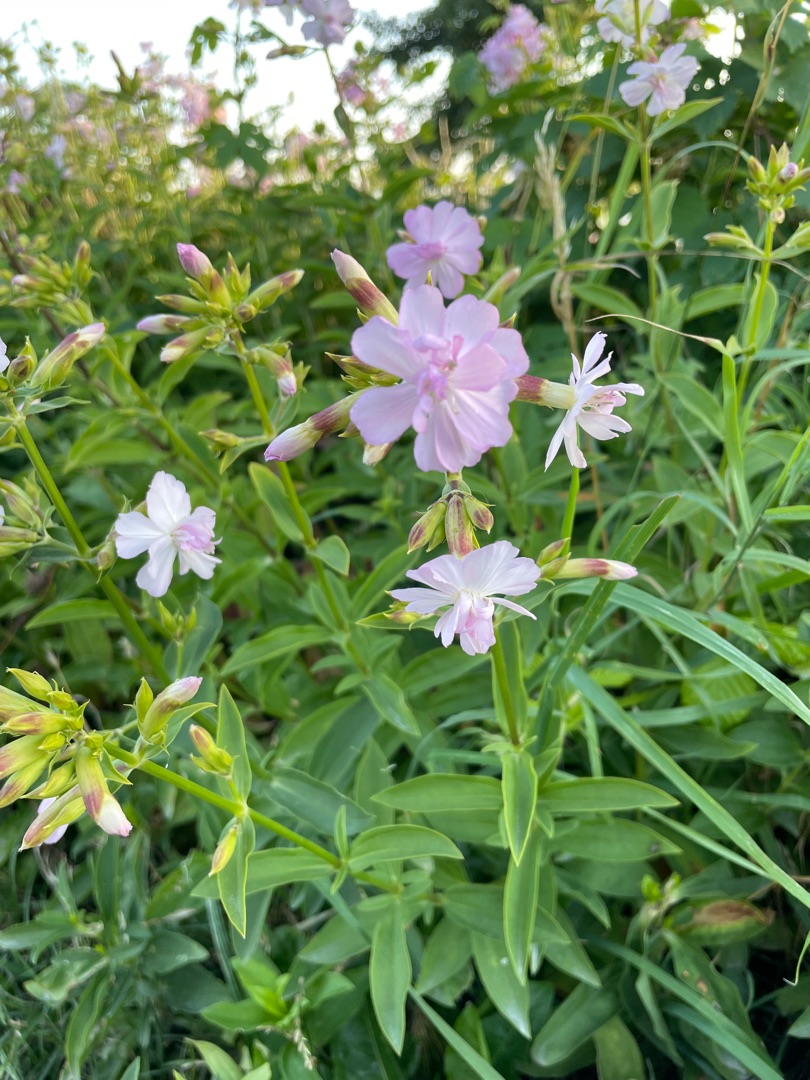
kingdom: Plantae
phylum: Tracheophyta
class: Magnoliopsida
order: Caryophyllales
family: Caryophyllaceae
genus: Saponaria
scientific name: Saponaria officinalis
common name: Sæbeurt
